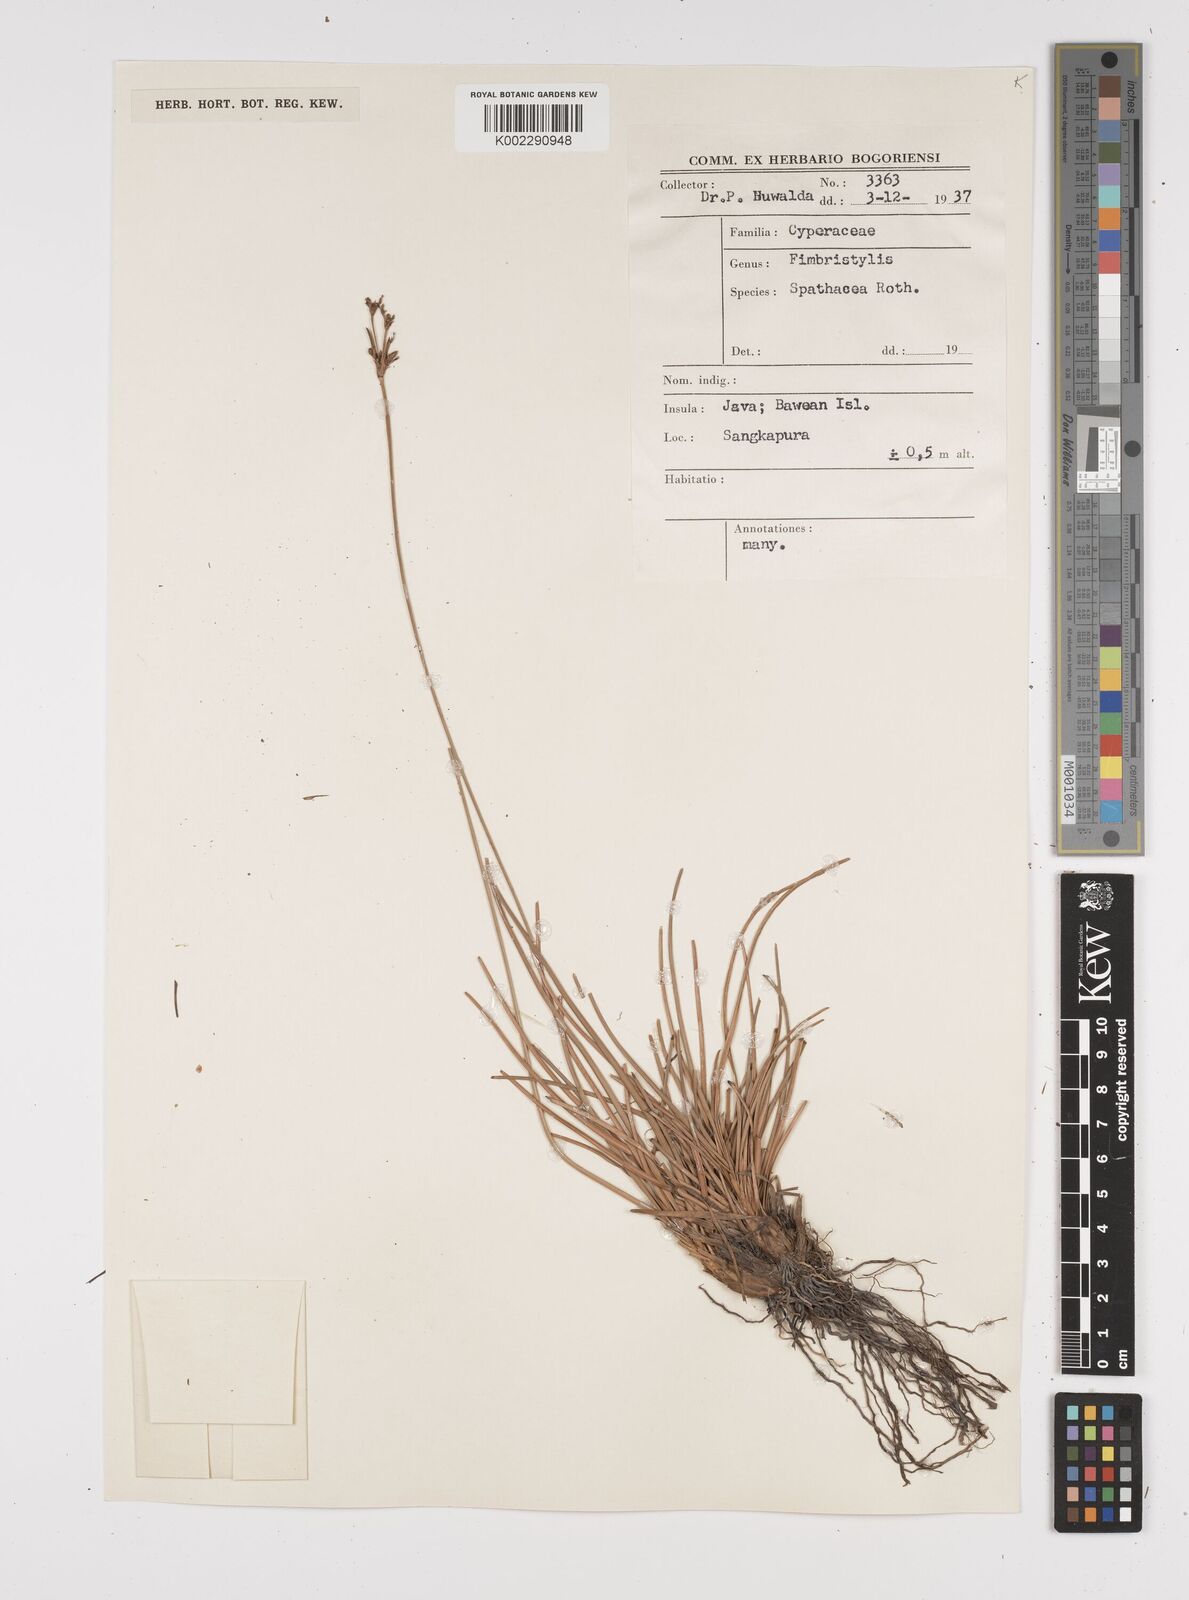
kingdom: Plantae
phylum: Tracheophyta
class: Liliopsida
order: Poales
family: Cyperaceae
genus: Fimbristylis
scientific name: Fimbristylis cymosa
